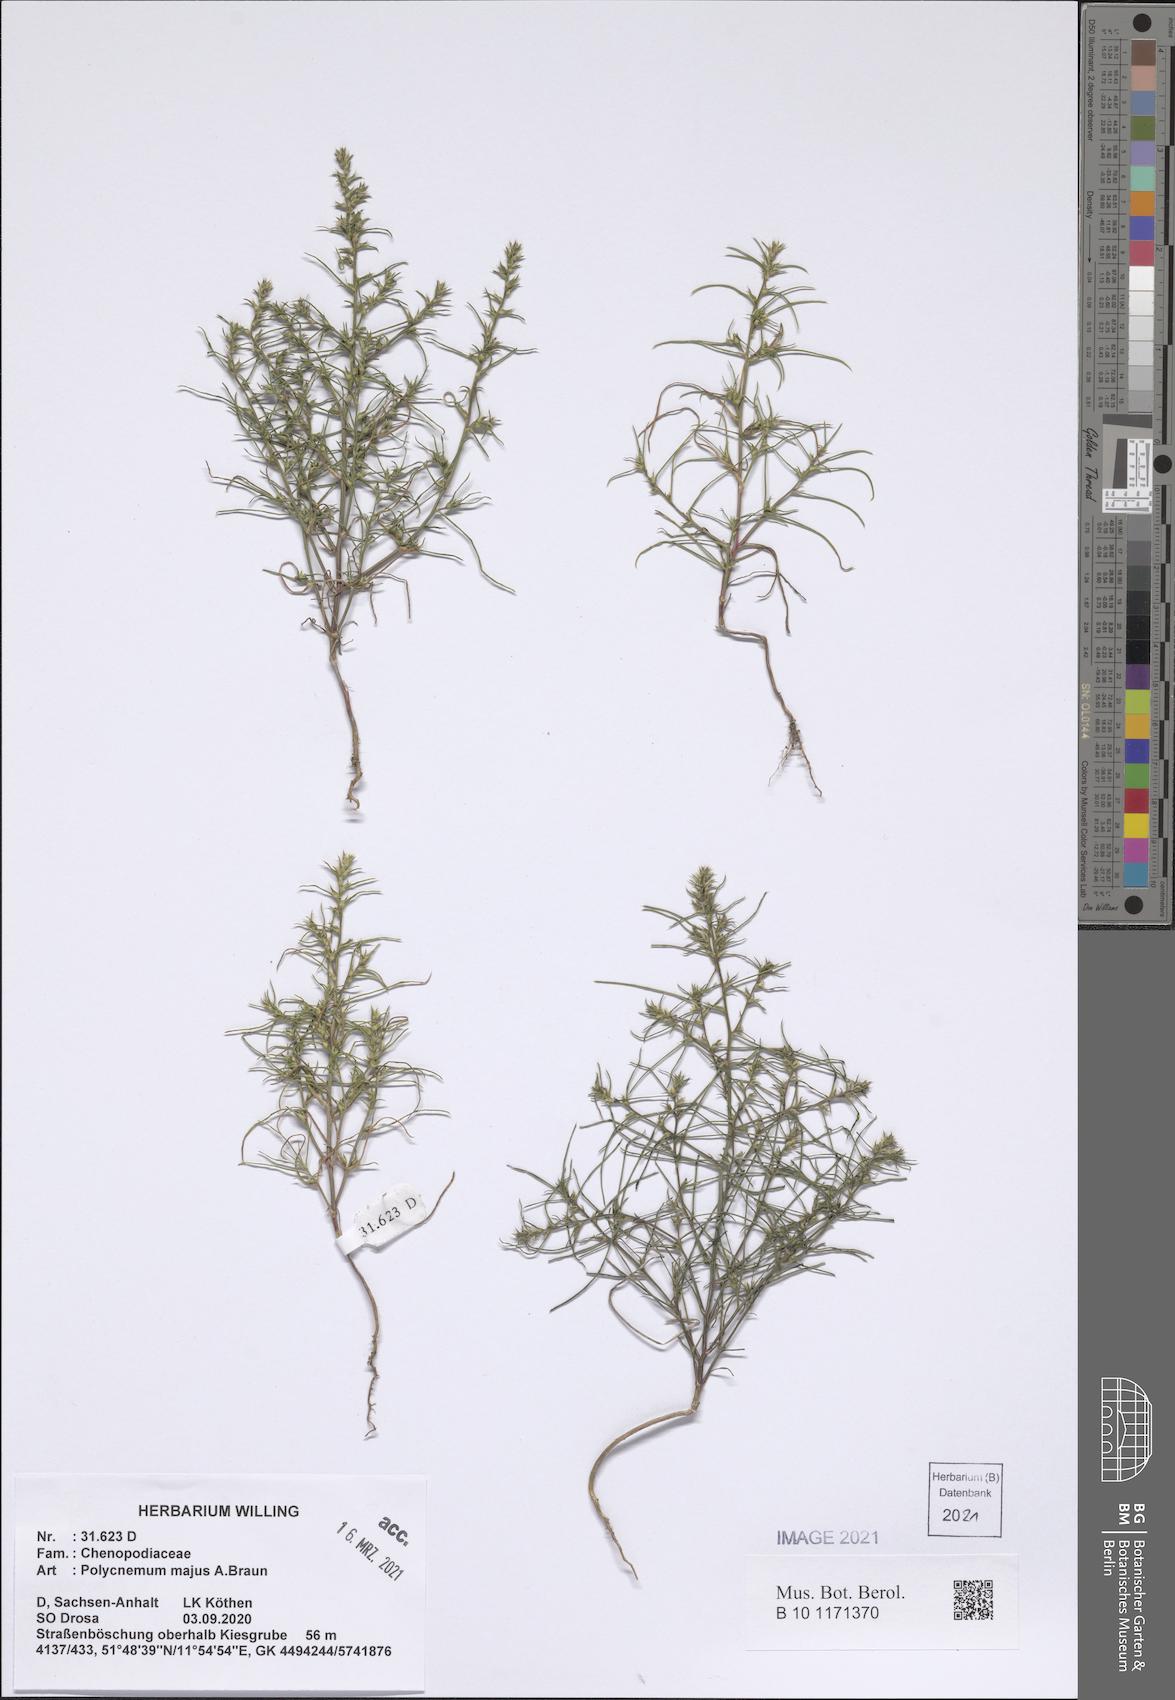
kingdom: Plantae
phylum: Tracheophyta
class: Magnoliopsida
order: Caryophyllales
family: Amaranthaceae
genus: Polycnemum
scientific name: Polycnemum majus
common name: Giant needleleaf
